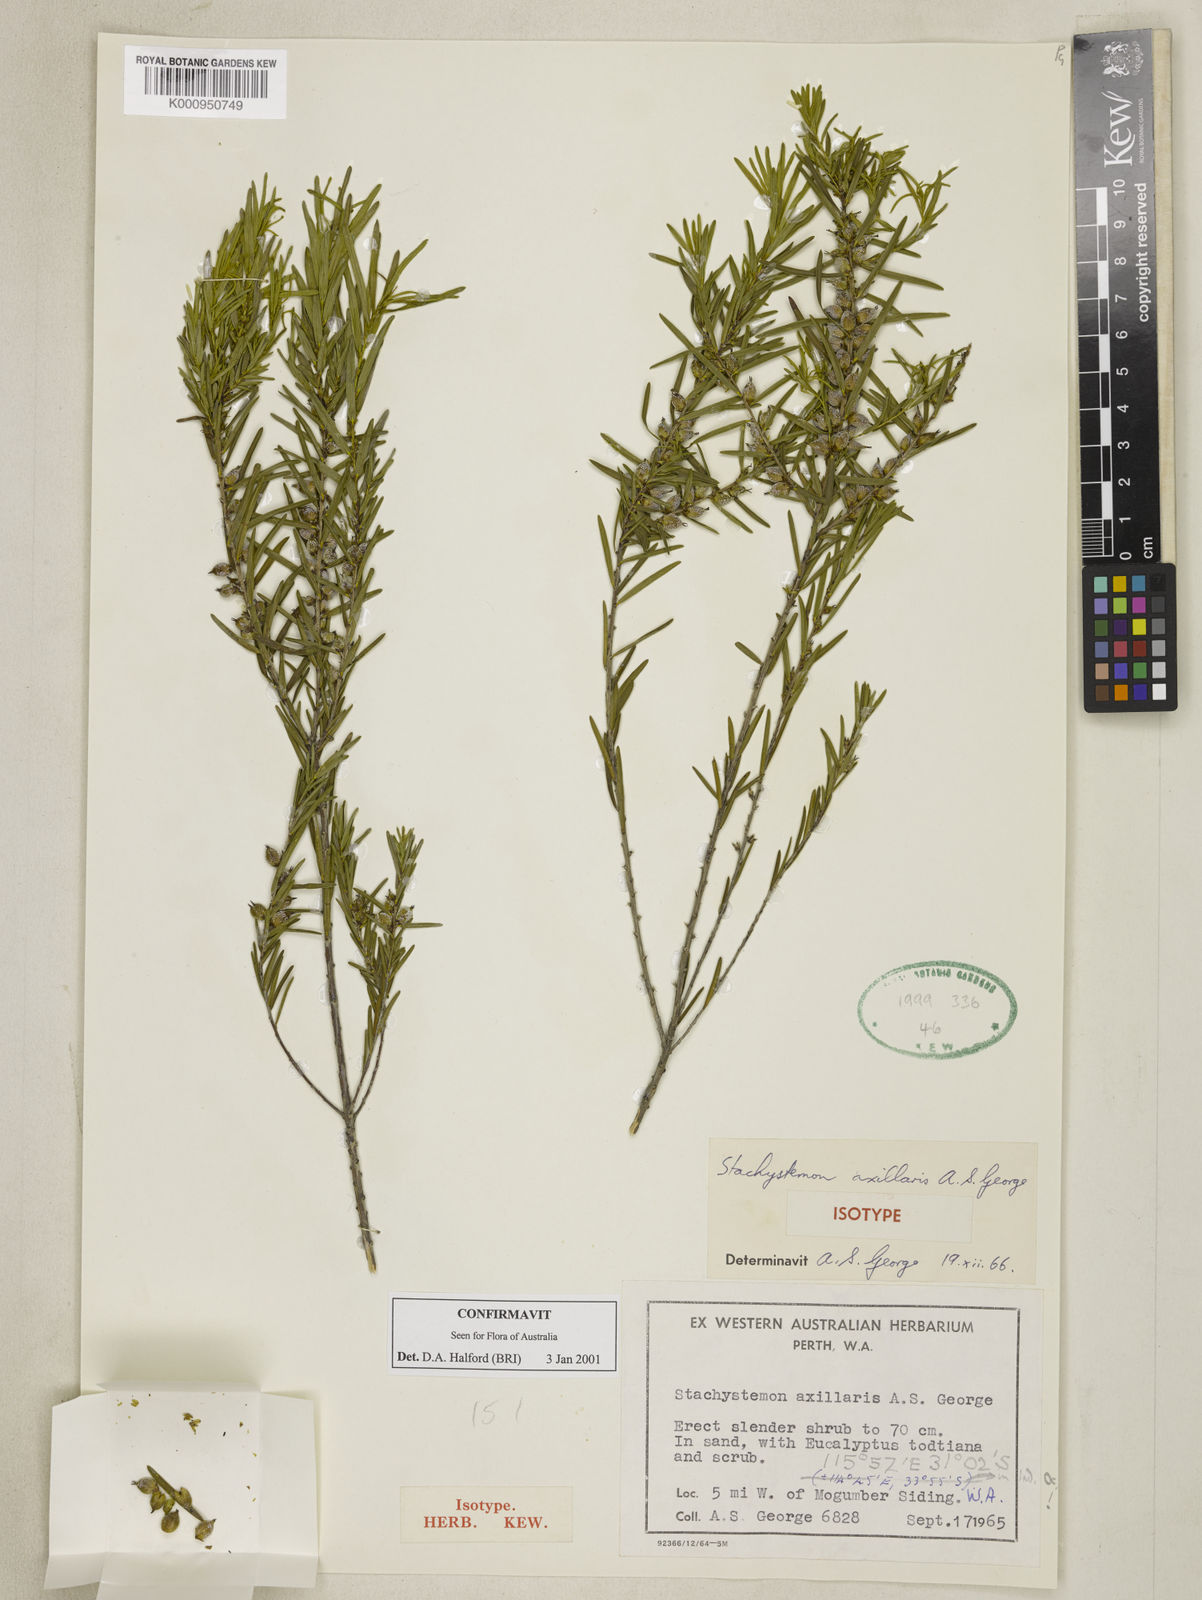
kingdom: Plantae
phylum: Tracheophyta
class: Magnoliopsida
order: Malpighiales
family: Picrodendraceae
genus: Stachystemon
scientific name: Stachystemon axillaris
